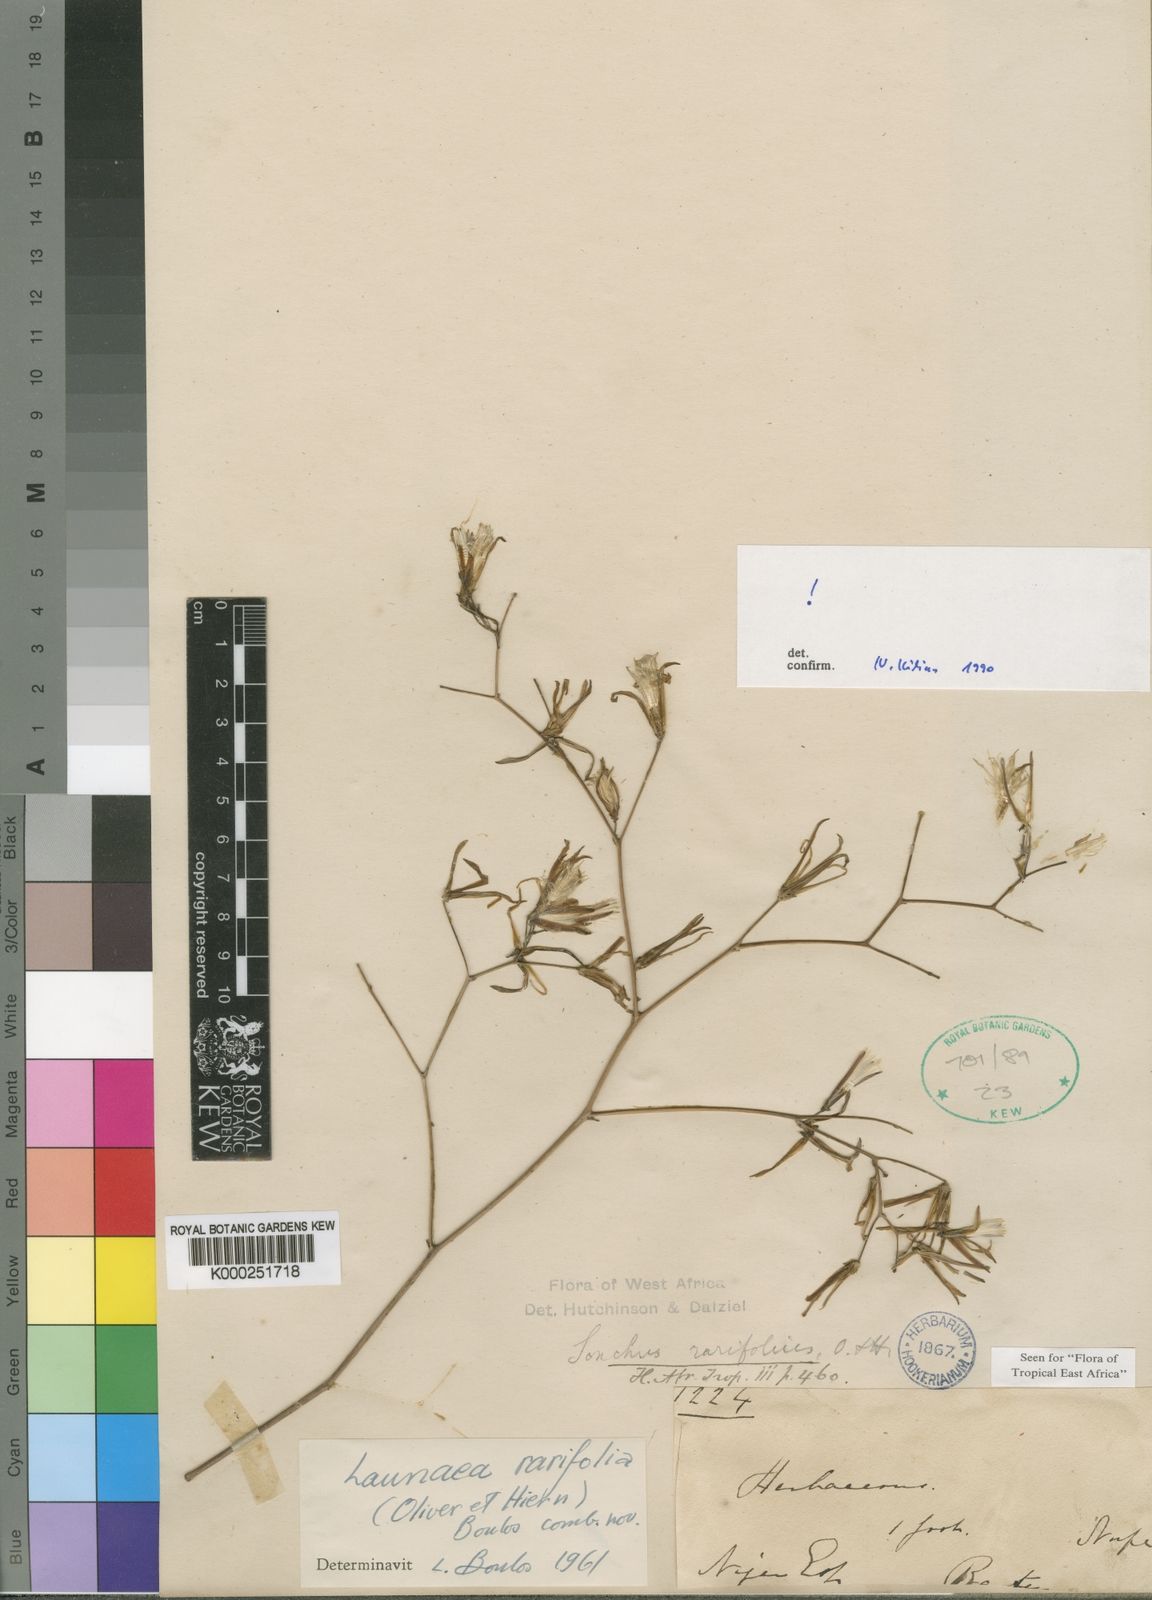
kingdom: Plantae
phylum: Tracheophyta
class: Magnoliopsida
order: Asterales
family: Asteraceae
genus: Launaea
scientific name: Launaea rarifolia
